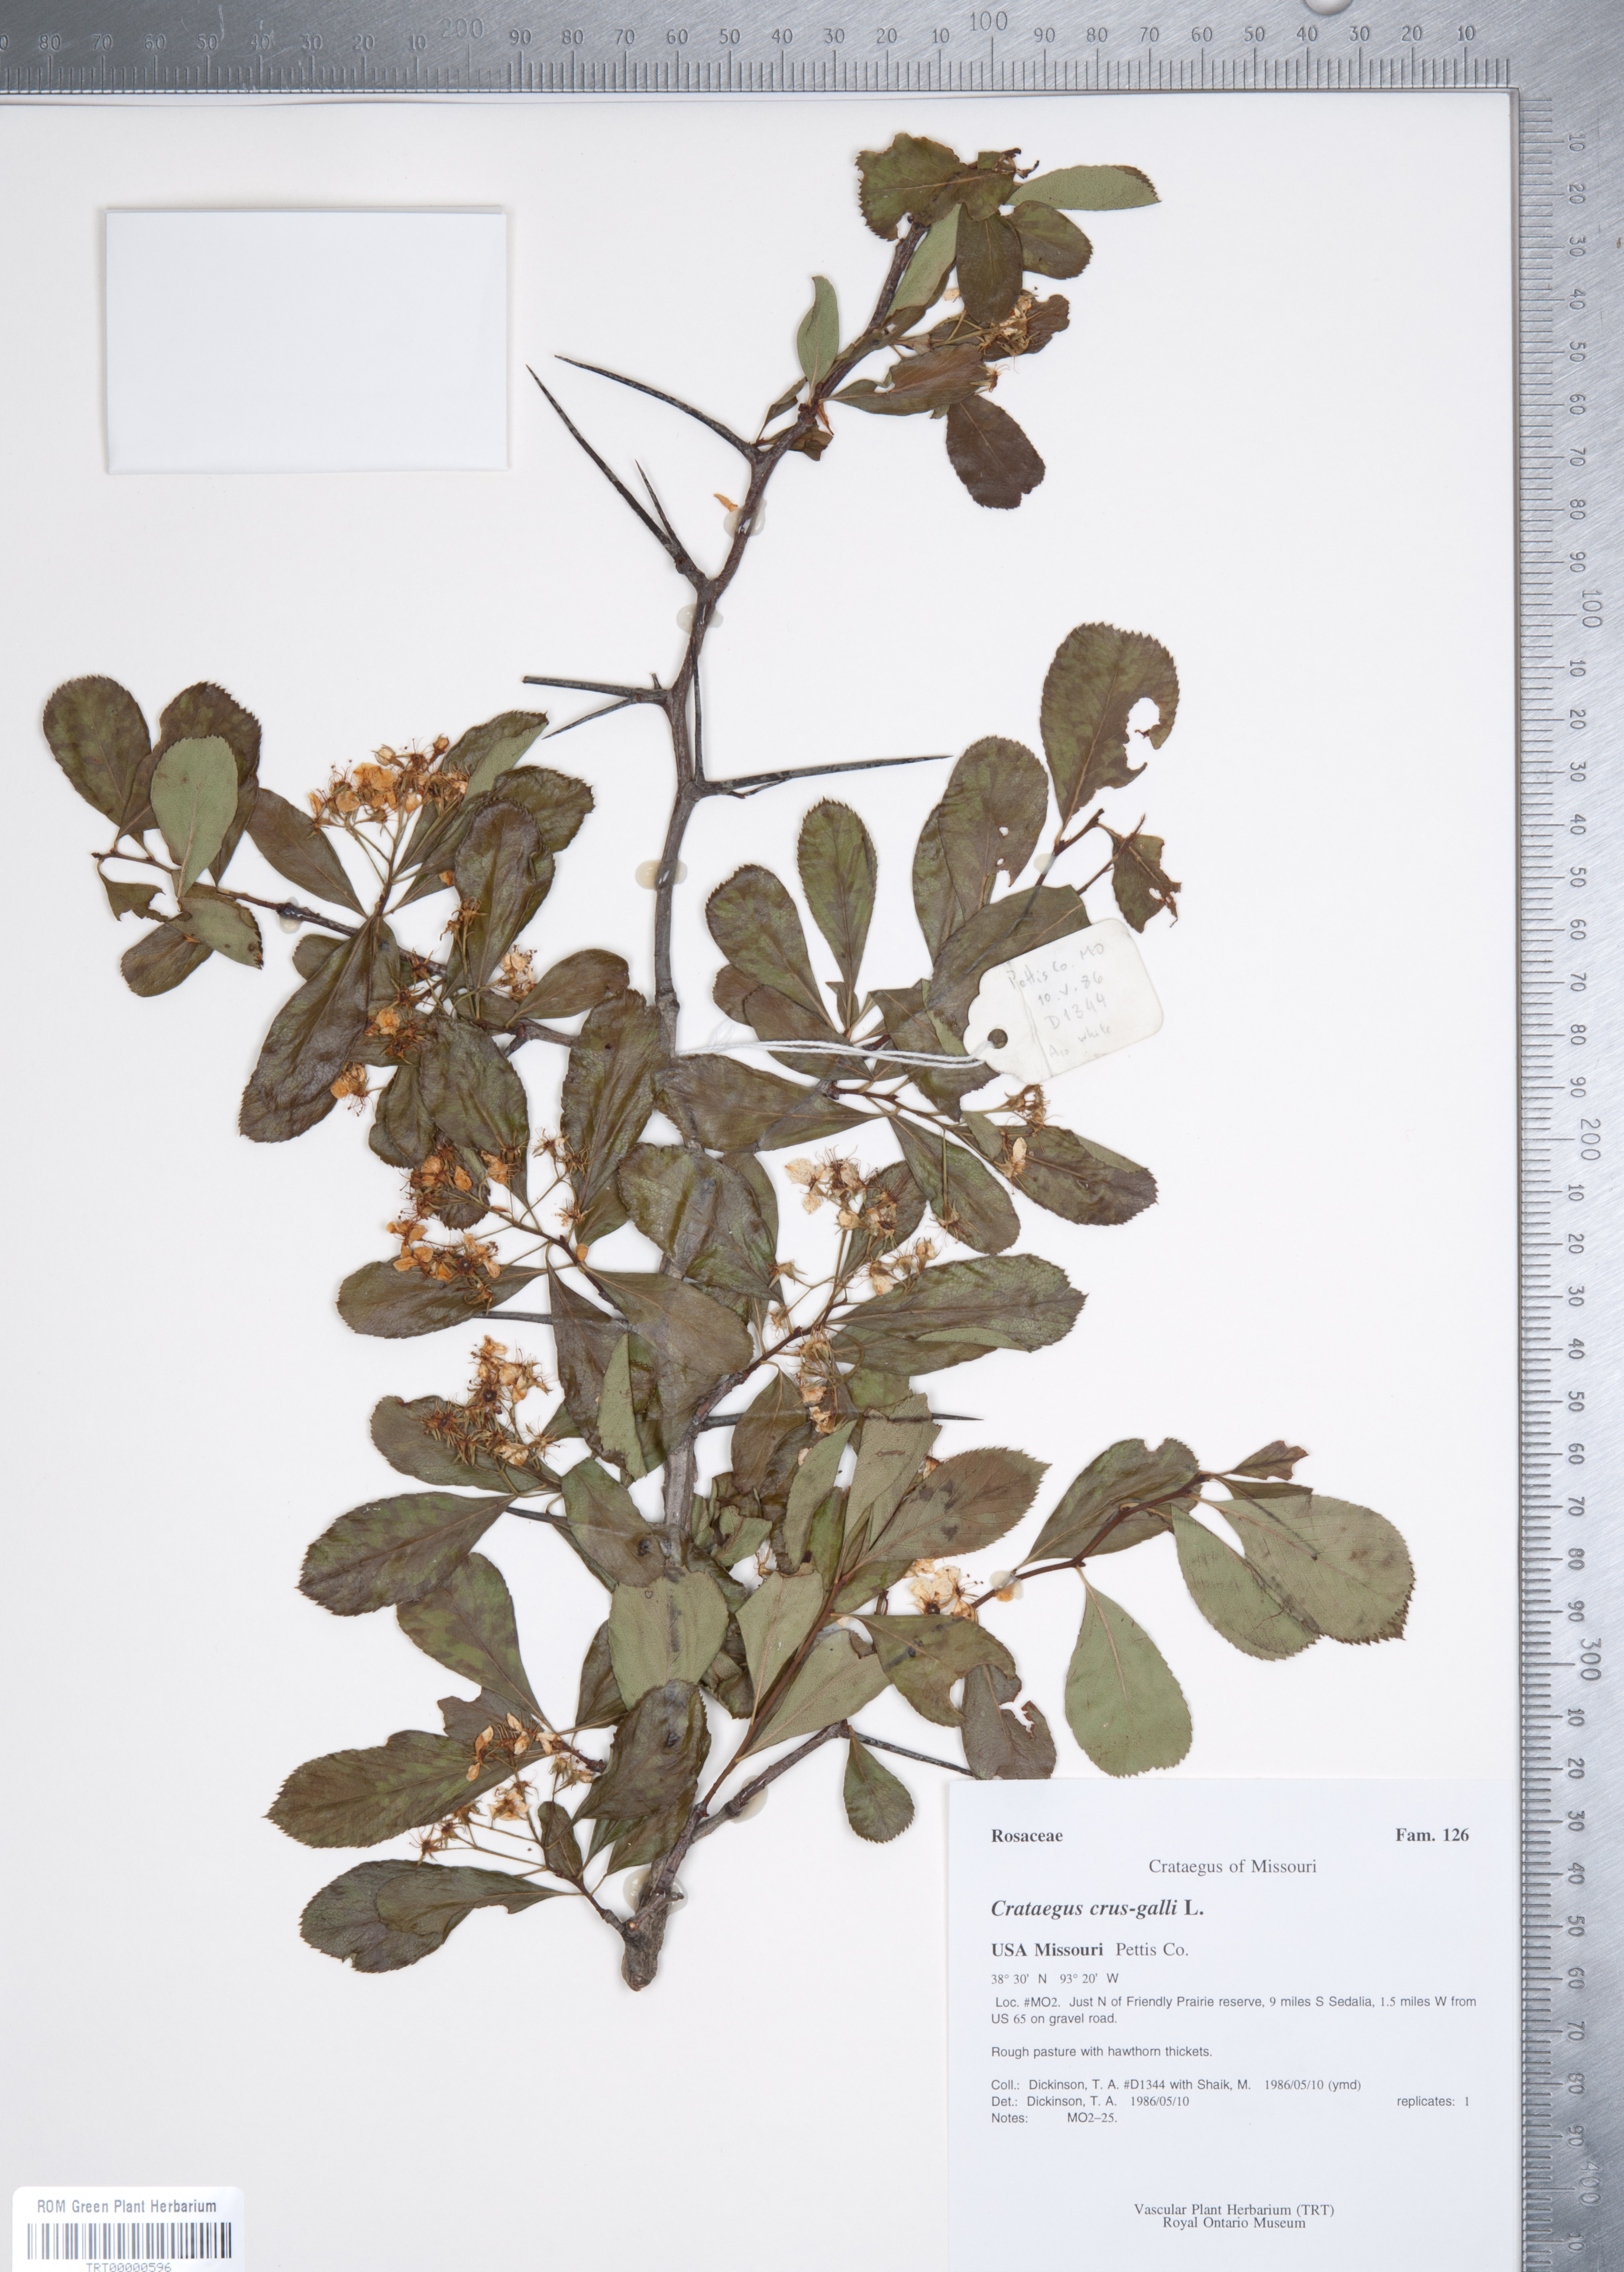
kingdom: Plantae
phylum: Tracheophyta
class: Magnoliopsida
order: Rosales
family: Rosaceae
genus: Crataegus
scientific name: Crataegus crus-galli
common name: Cockspurthorn
